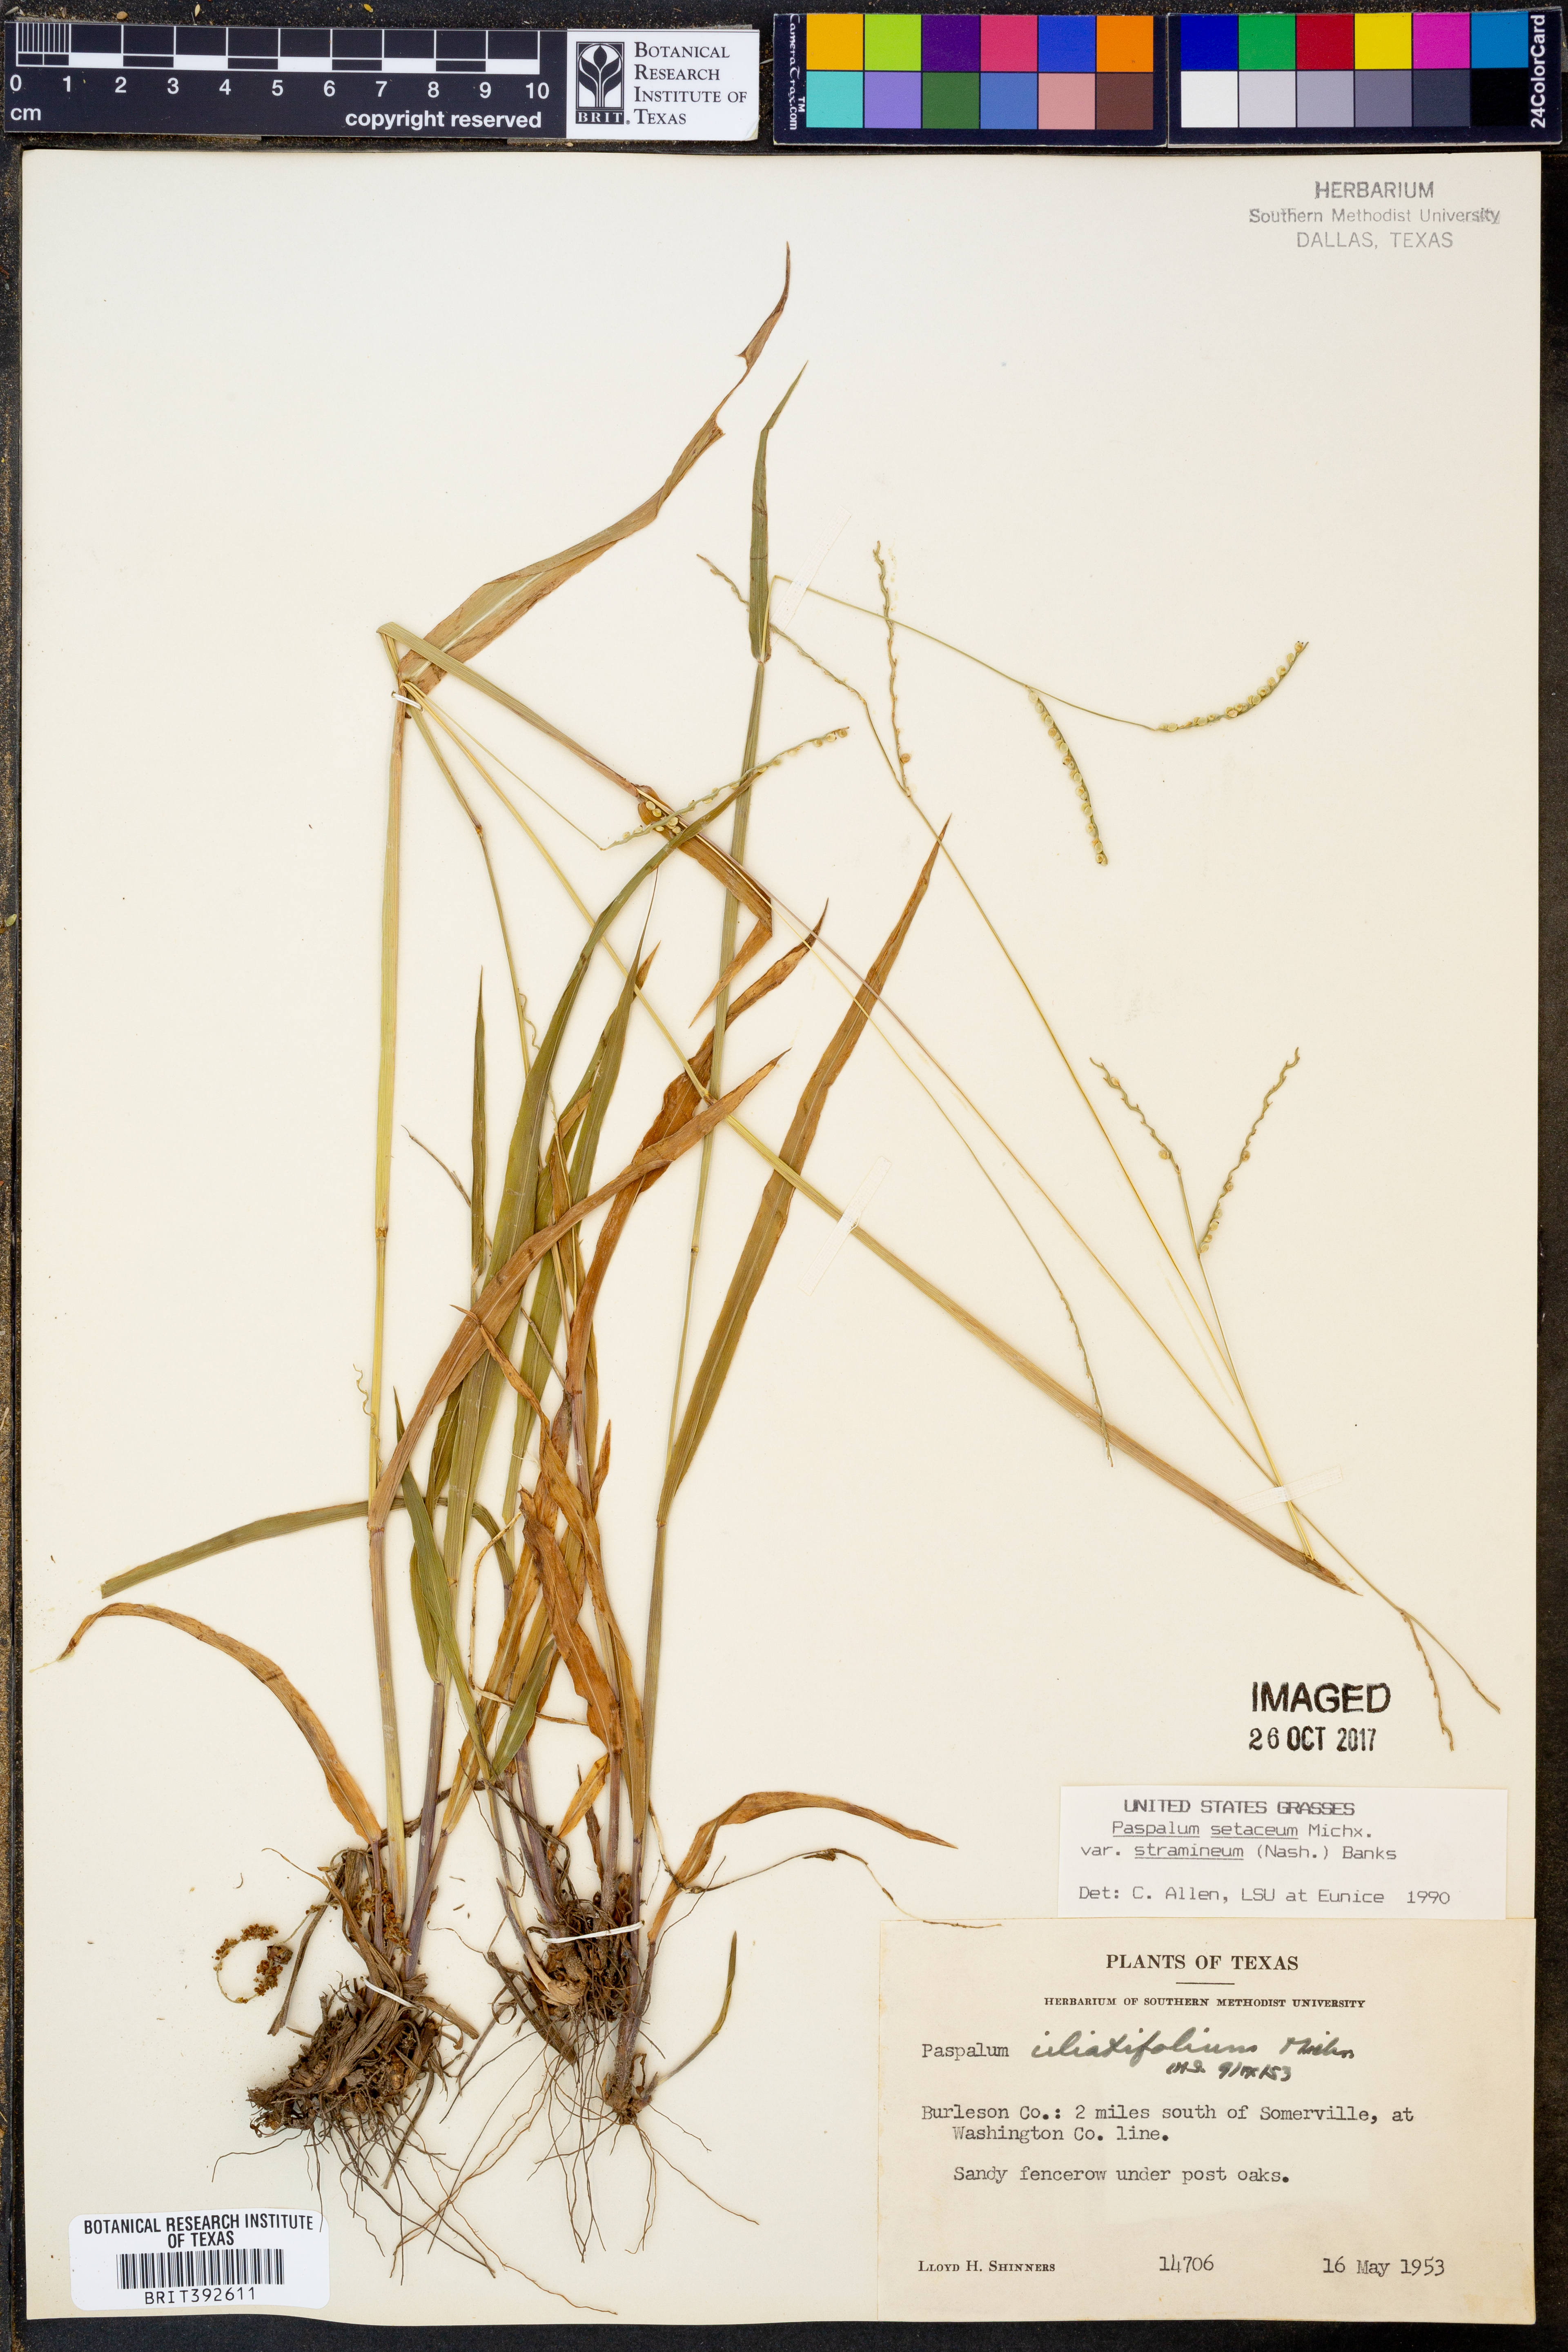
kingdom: Plantae
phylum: Tracheophyta
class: Liliopsida
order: Poales
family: Poaceae
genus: Paspalum
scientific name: Paspalum setaceum
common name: Slender paspalum
